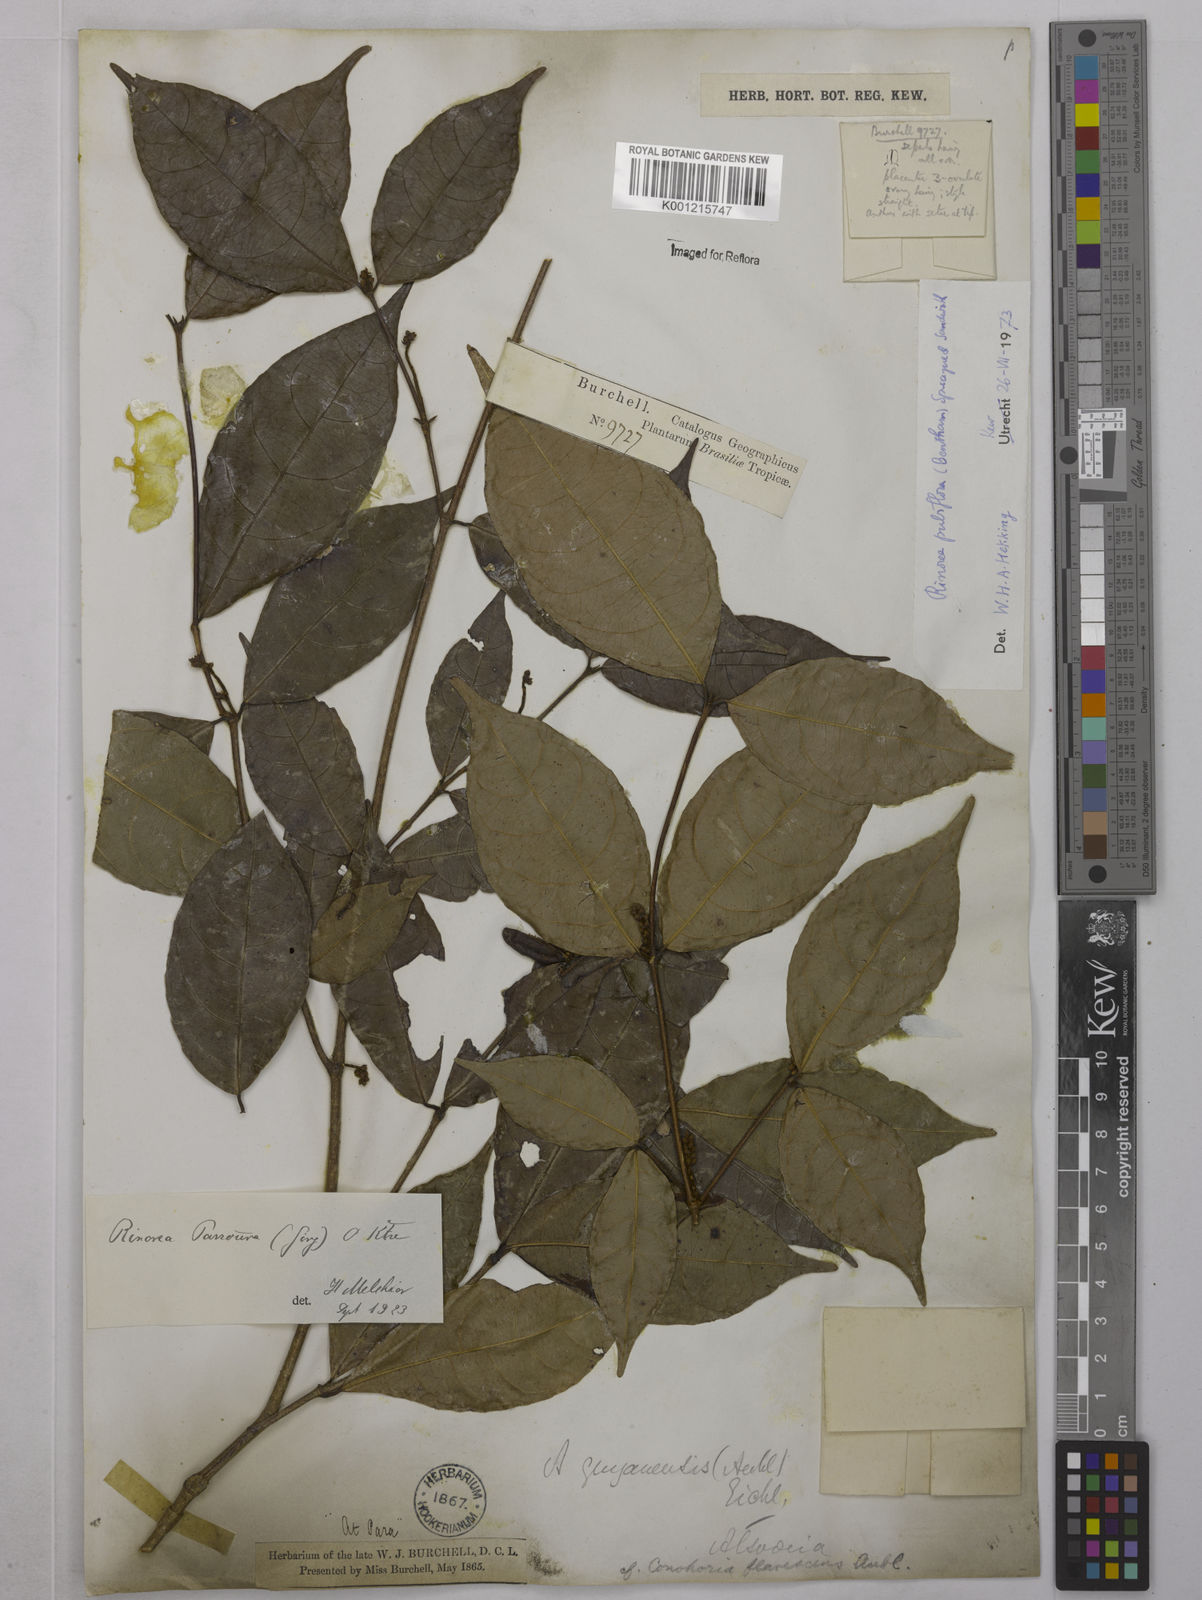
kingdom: Plantae
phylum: Tracheophyta
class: Magnoliopsida
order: Malpighiales
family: Violaceae
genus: Rinorea
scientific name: Rinorea pubiflora
